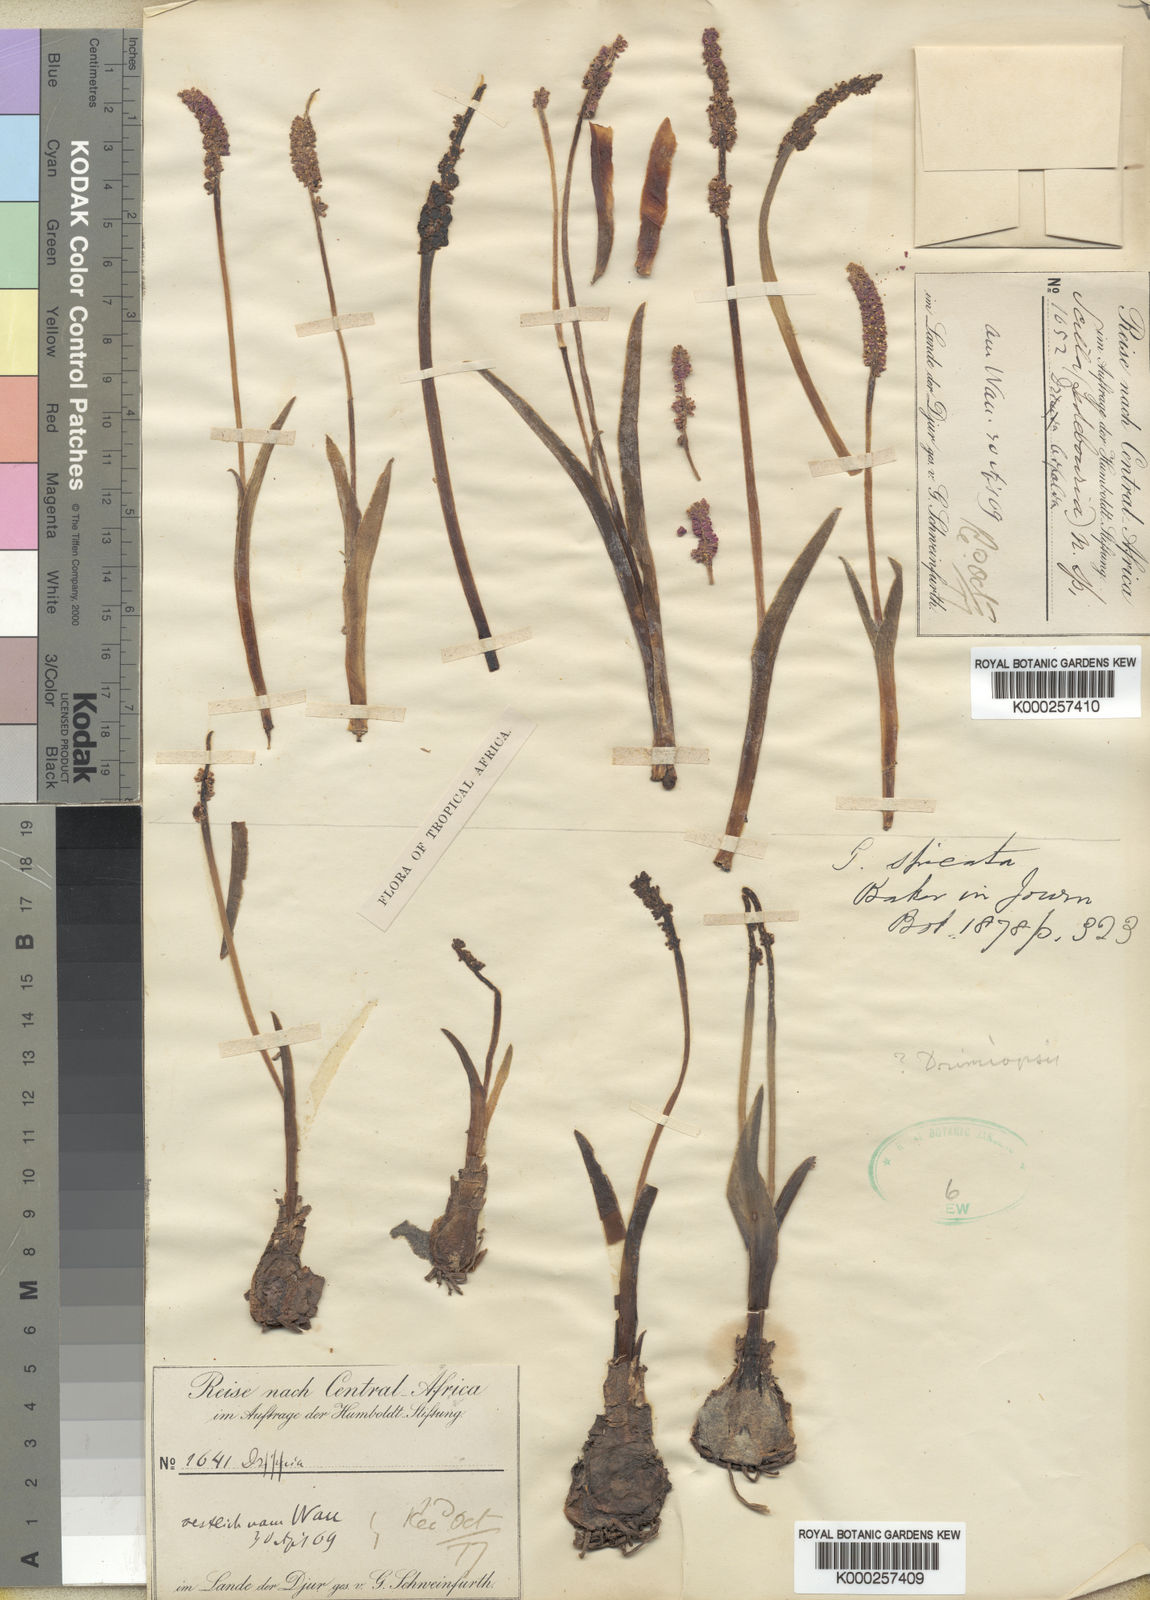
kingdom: Plantae
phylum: Tracheophyta
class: Liliopsida
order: Asparagales
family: Asparagaceae
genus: Drimiopsis
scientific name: Drimiopsis spicata
